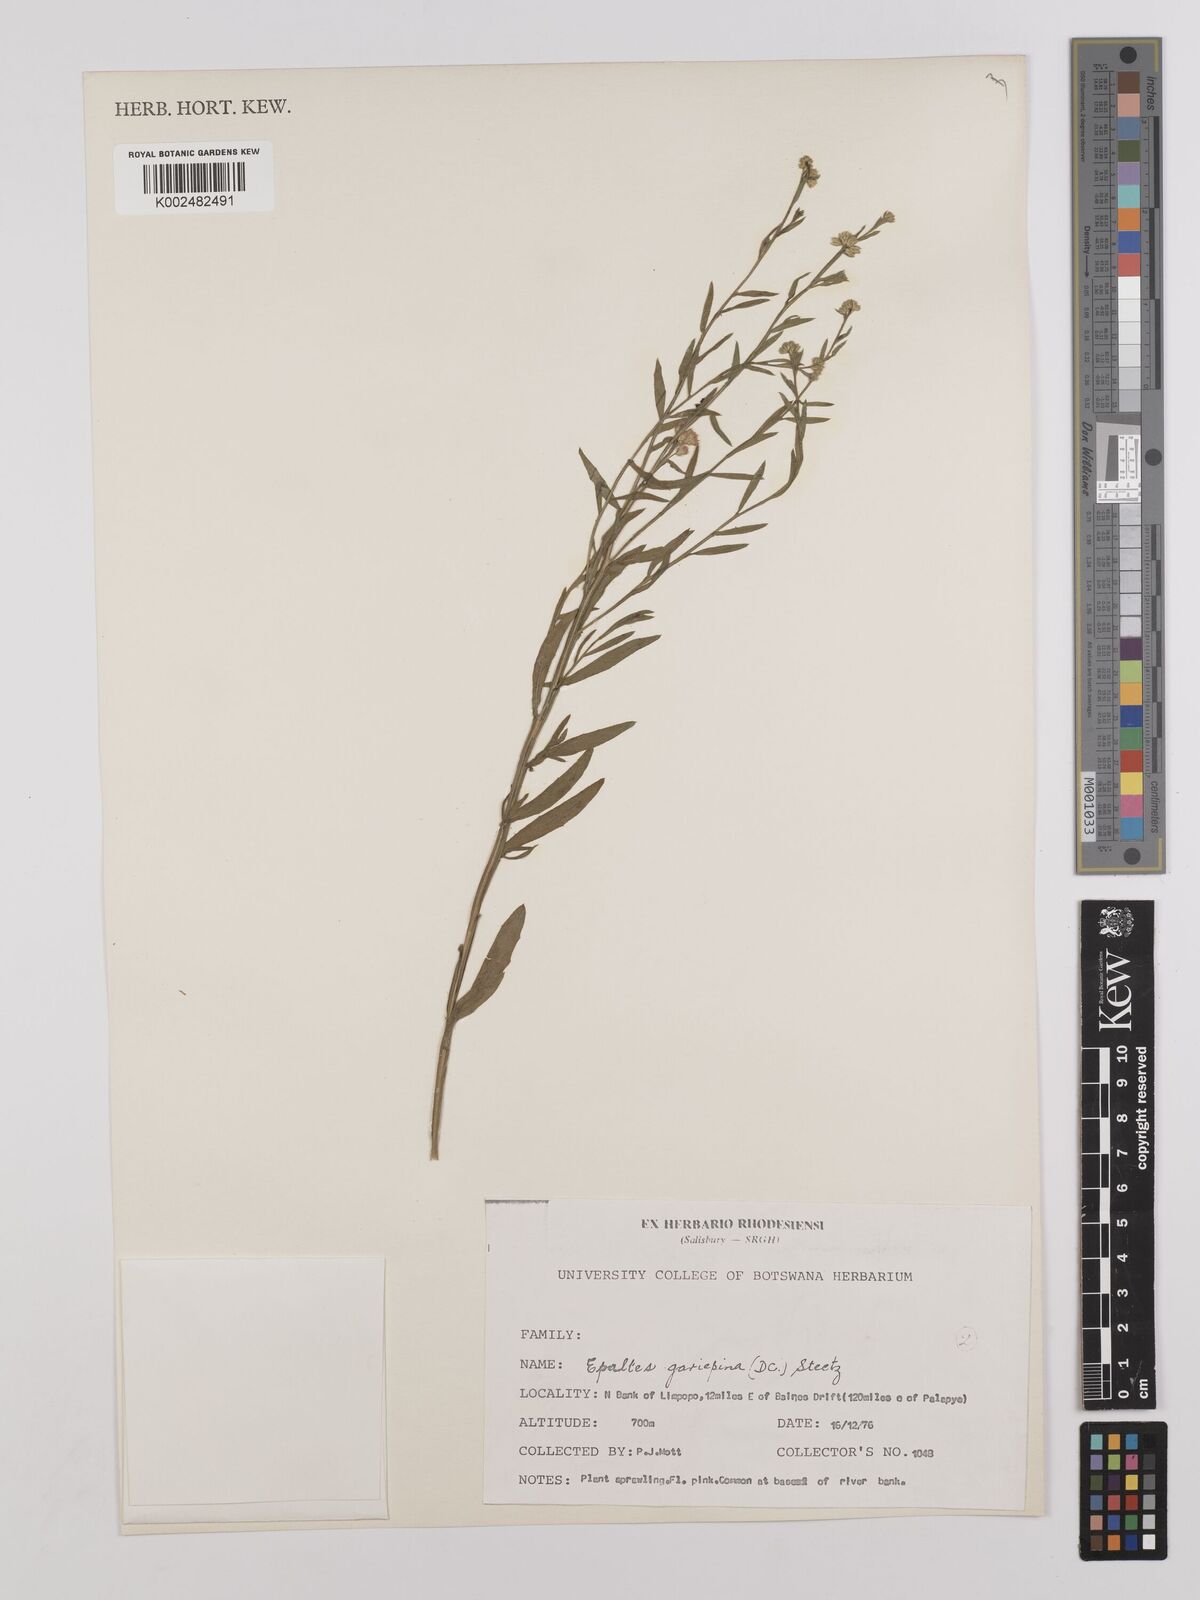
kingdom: Plantae
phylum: Tracheophyta
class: Magnoliopsida
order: Asterales
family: Asteraceae
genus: Litogyne
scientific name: Litogyne gariepina
